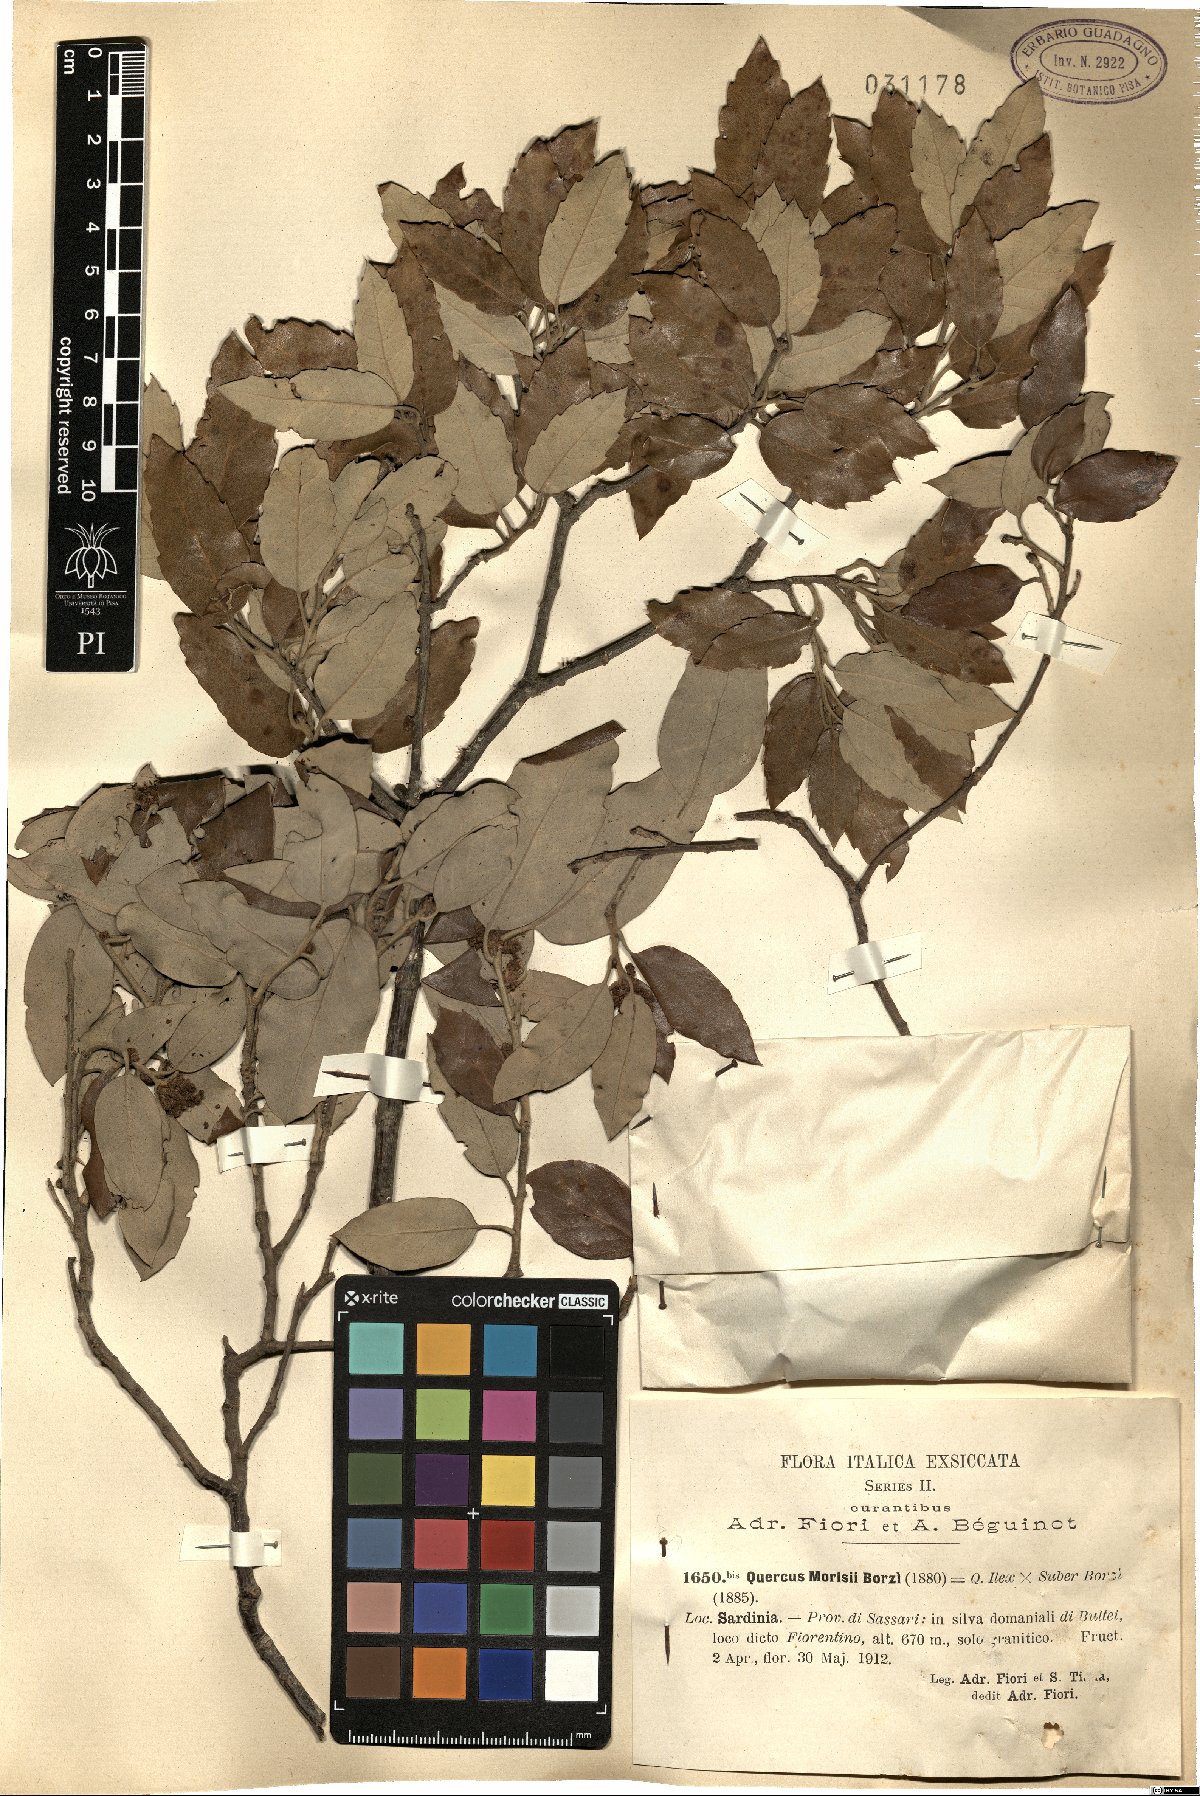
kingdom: Plantae
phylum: Tracheophyta
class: Magnoliopsida
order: Fagales
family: Fagaceae
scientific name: Fagaceae
